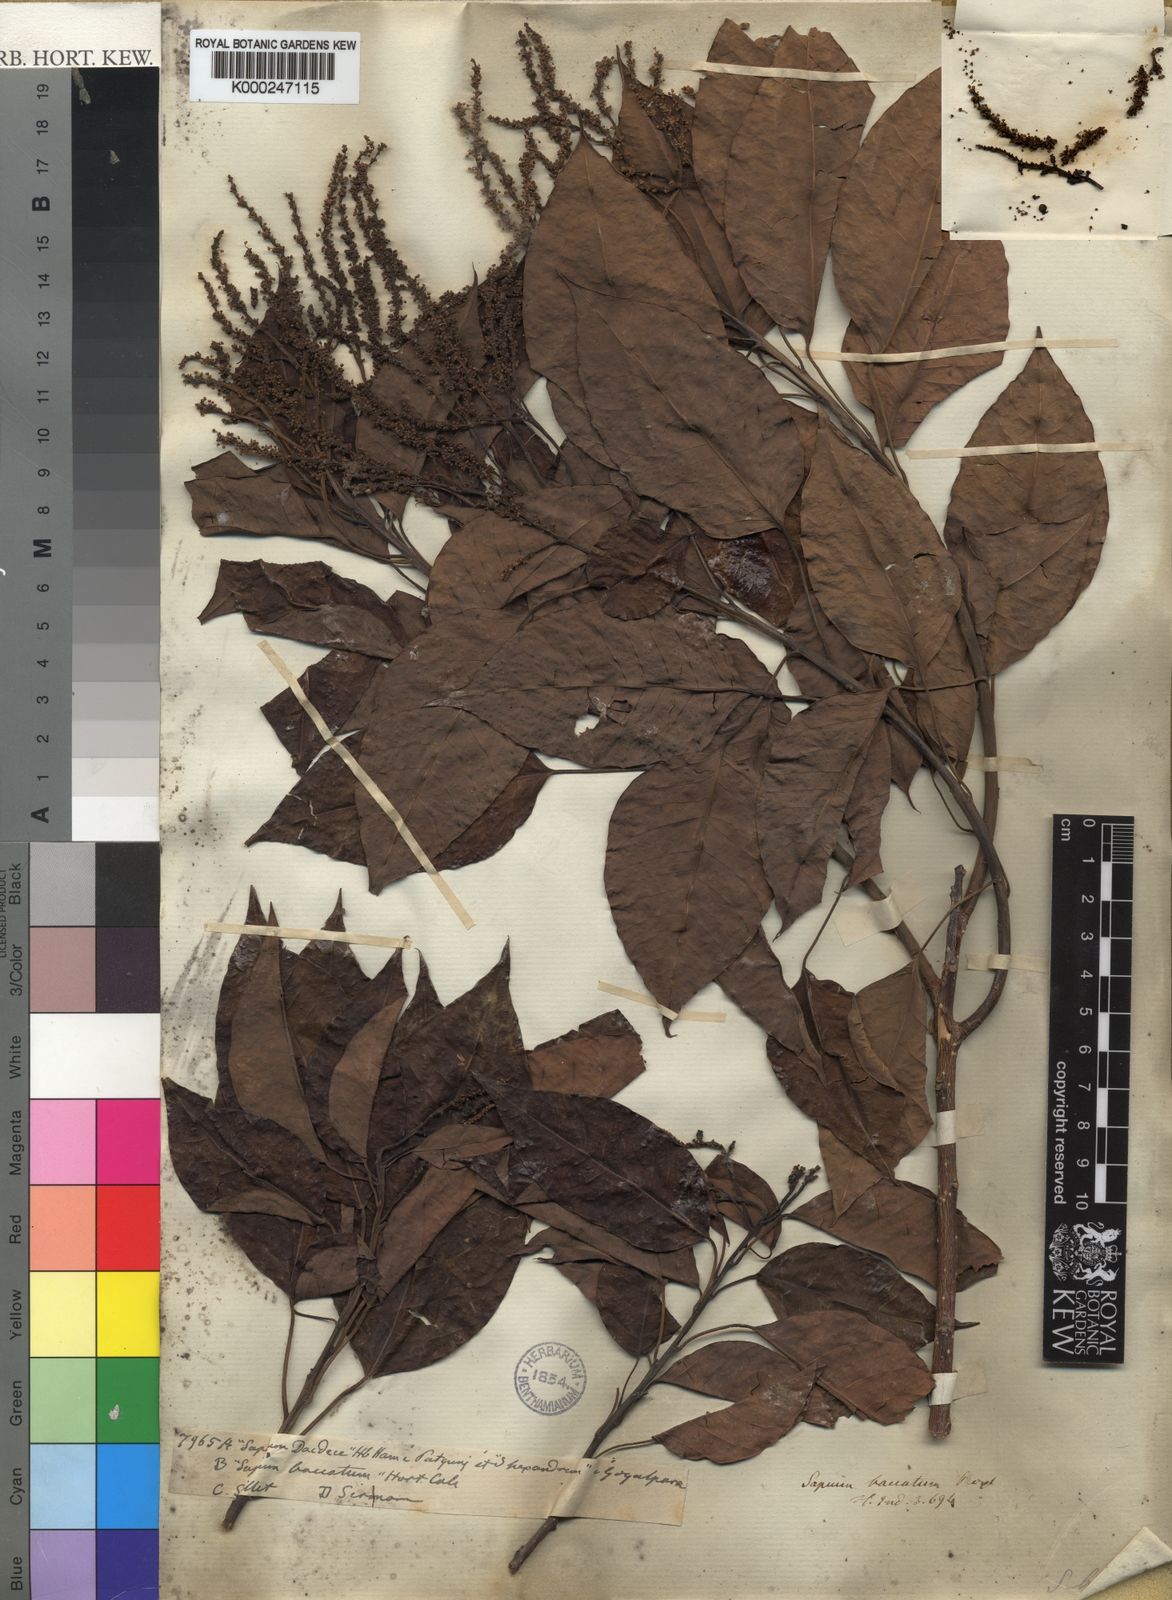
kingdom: Plantae
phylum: Tracheophyta
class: Magnoliopsida
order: Malpighiales
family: Euphorbiaceae
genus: Balakata
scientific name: Balakata baccata
